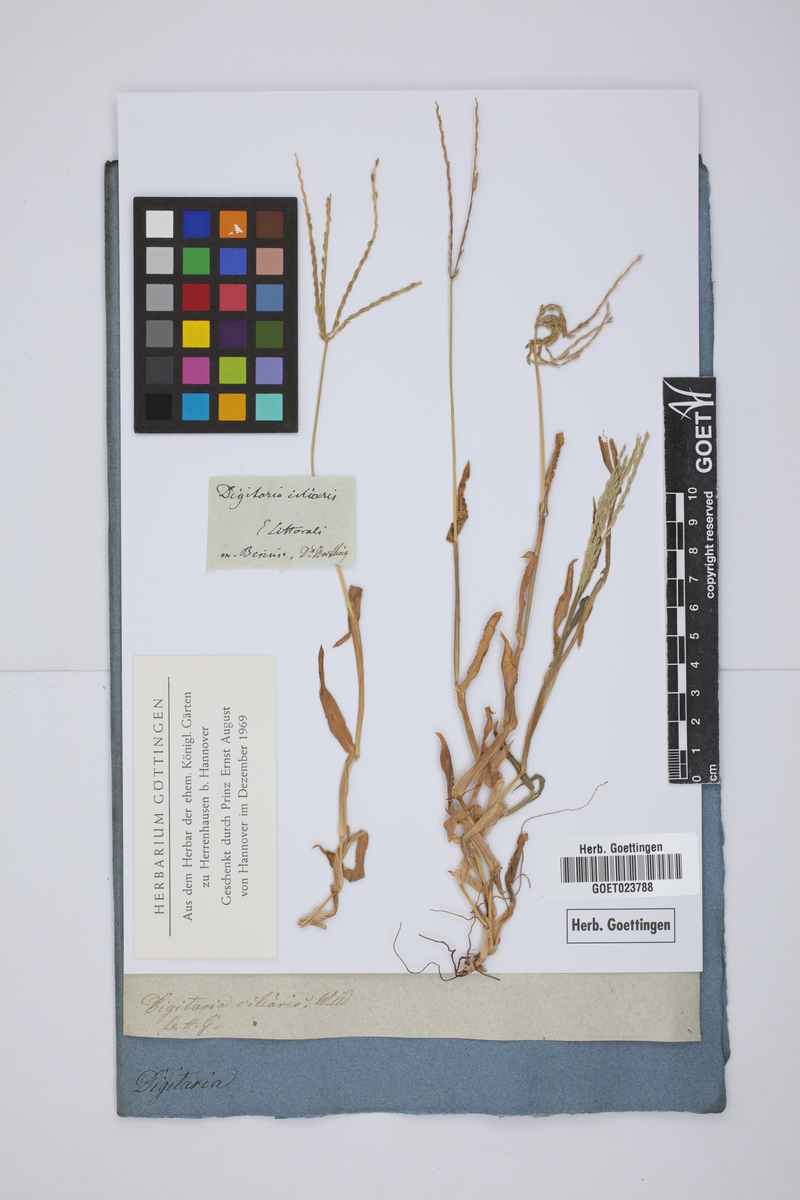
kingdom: Plantae
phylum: Tracheophyta
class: Liliopsida
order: Poales
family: Poaceae
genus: Digitaria
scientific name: Digitaria ciliaris
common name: Tropical finger-grass
